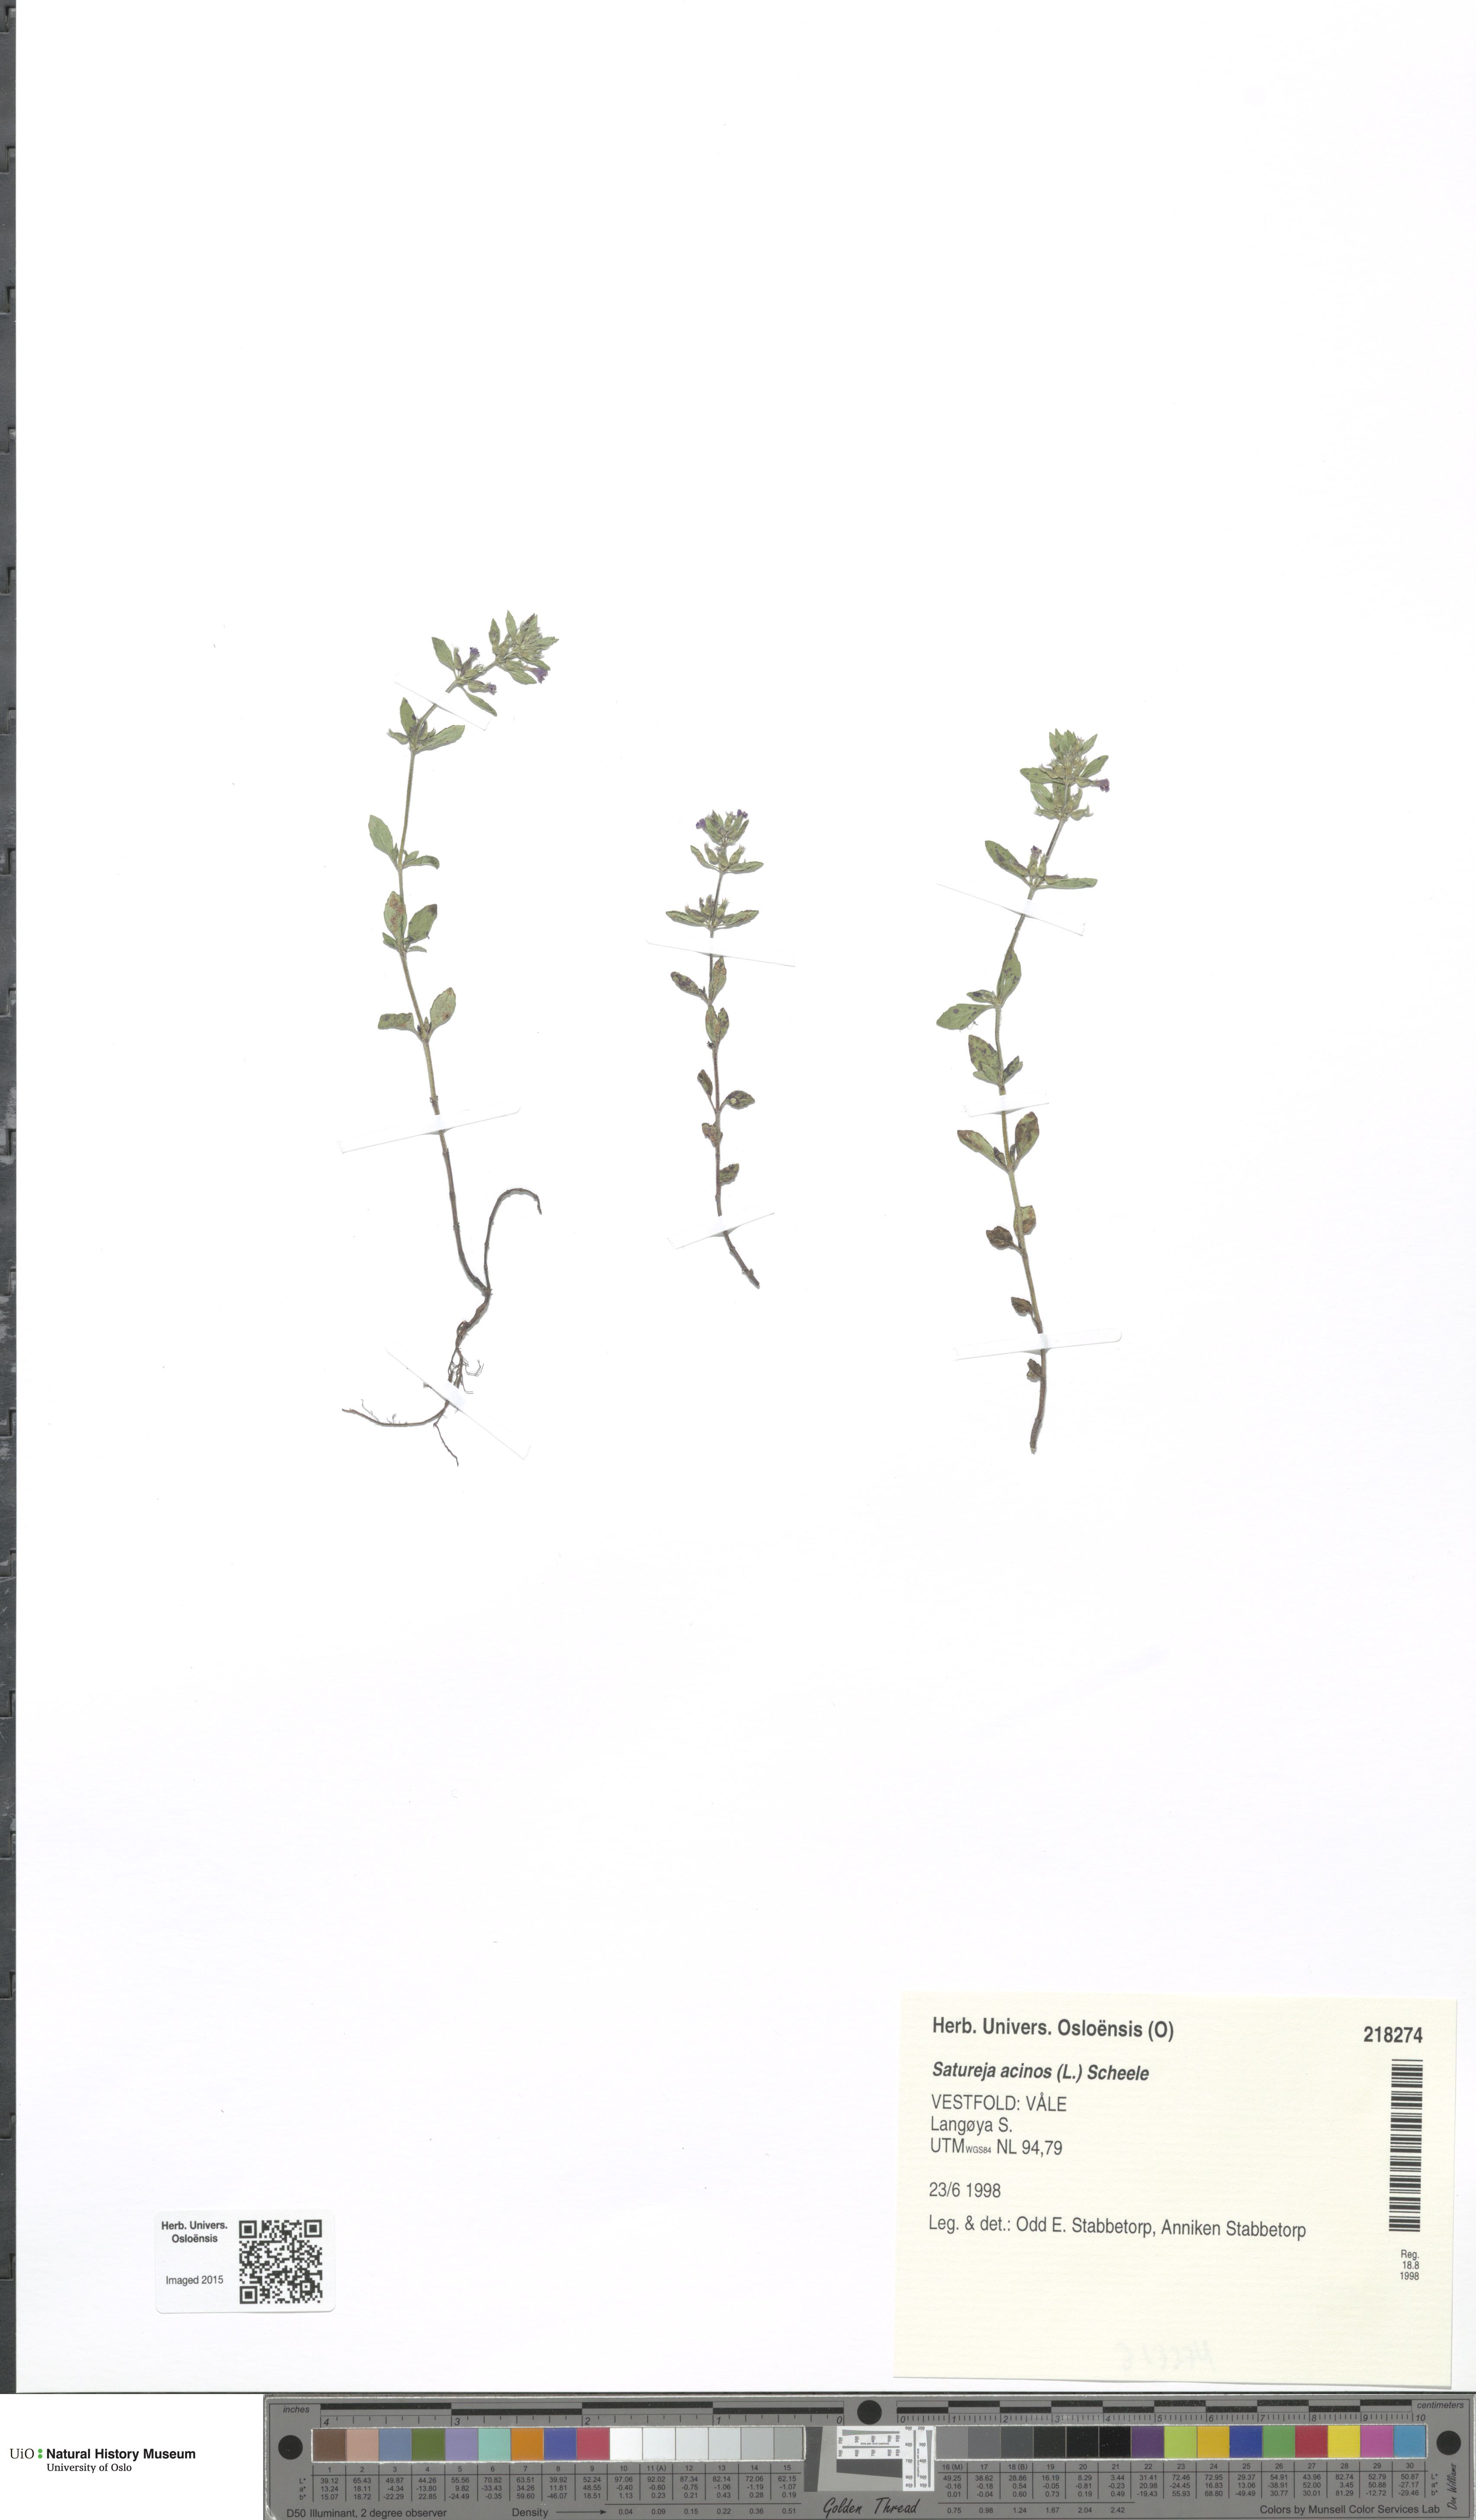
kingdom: Plantae
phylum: Tracheophyta
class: Magnoliopsida
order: Lamiales
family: Lamiaceae
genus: Clinopodium
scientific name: Clinopodium acinos
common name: Basil thyme
